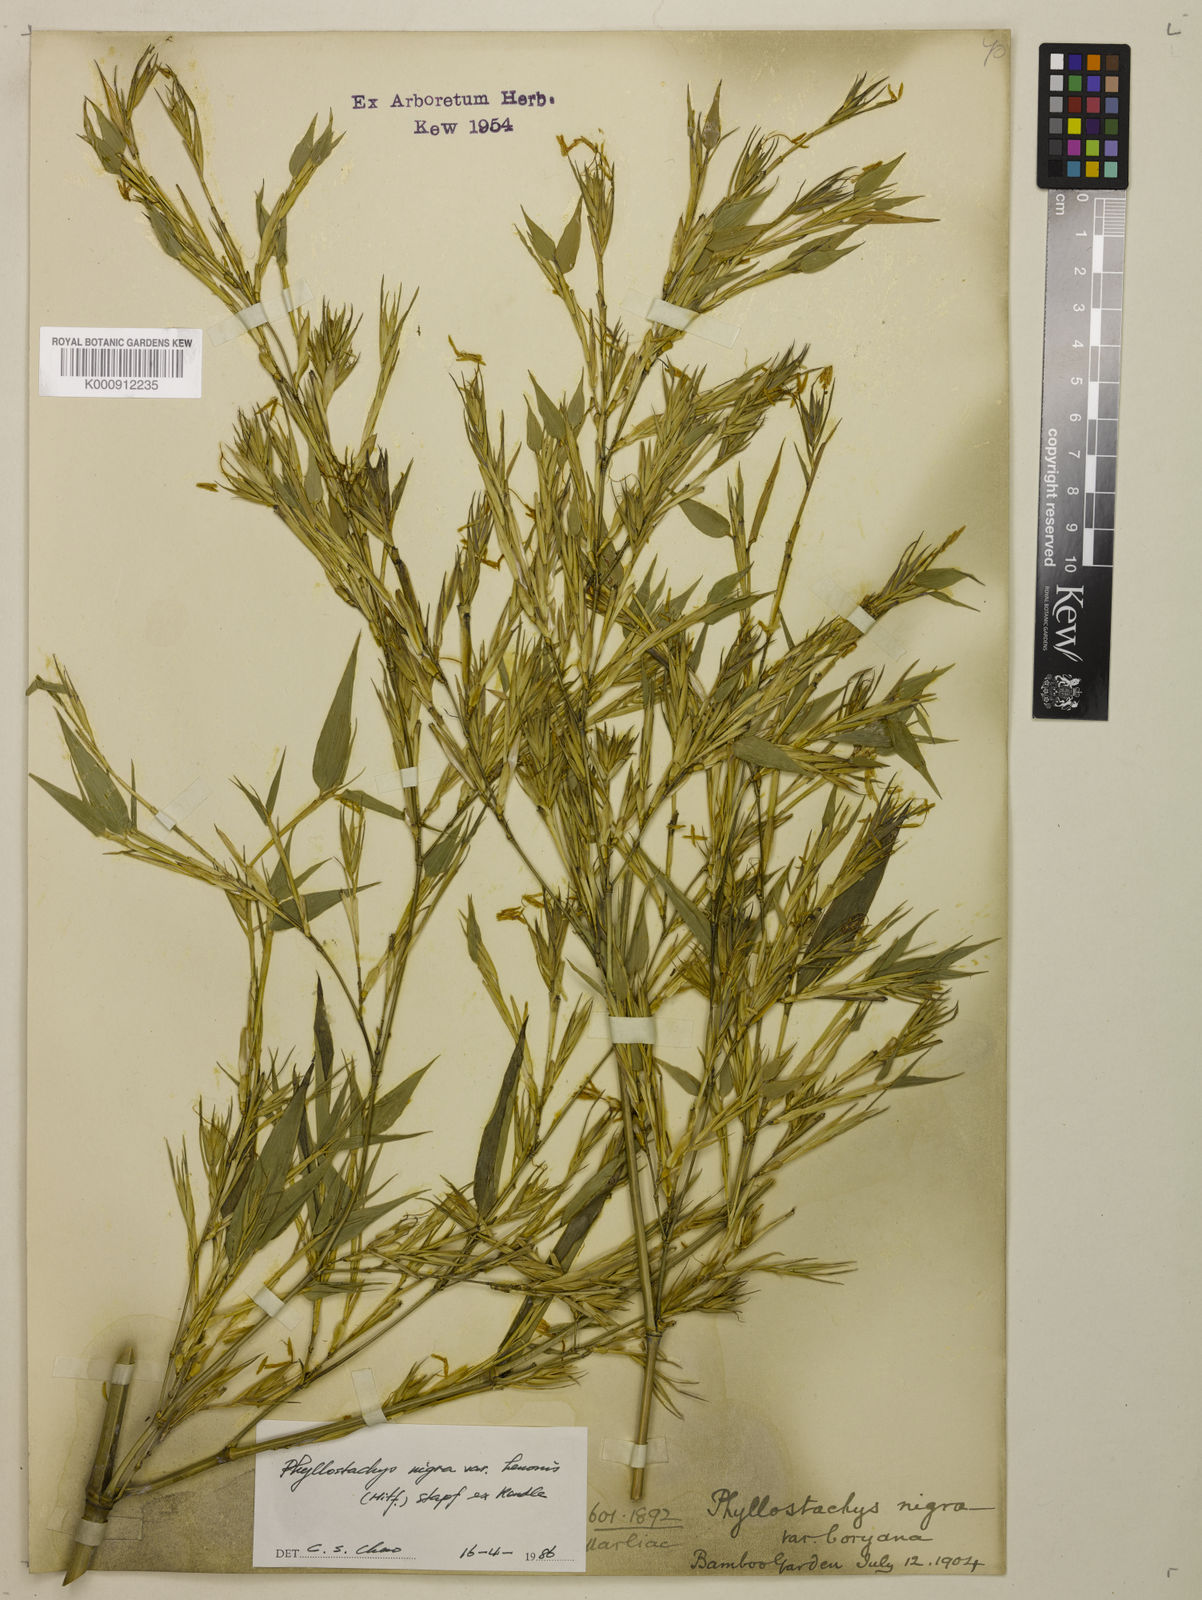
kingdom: Plantae
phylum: Tracheophyta
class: Liliopsida
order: Poales
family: Poaceae
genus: Phyllostachys
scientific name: Phyllostachys nigra
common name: Black bamboo
